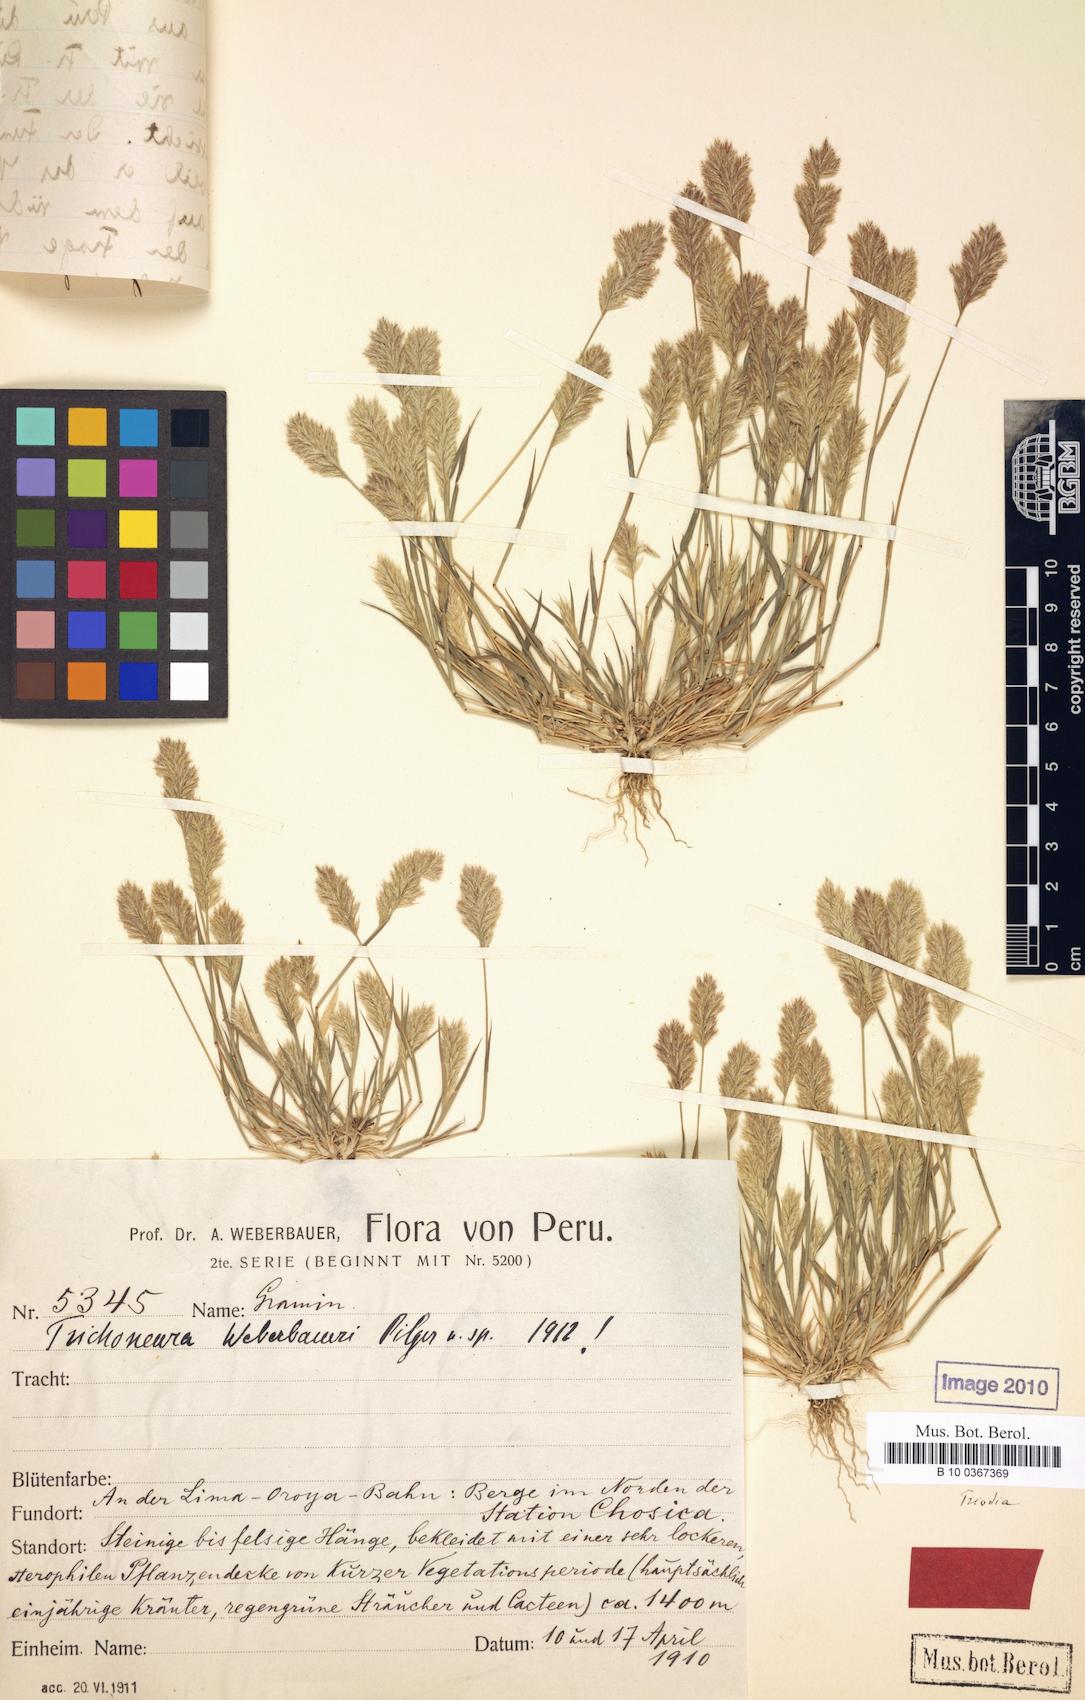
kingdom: Plantae
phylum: Tracheophyta
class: Liliopsida
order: Poales
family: Poaceae
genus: Trichoneura
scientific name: Trichoneura weberbaueri
